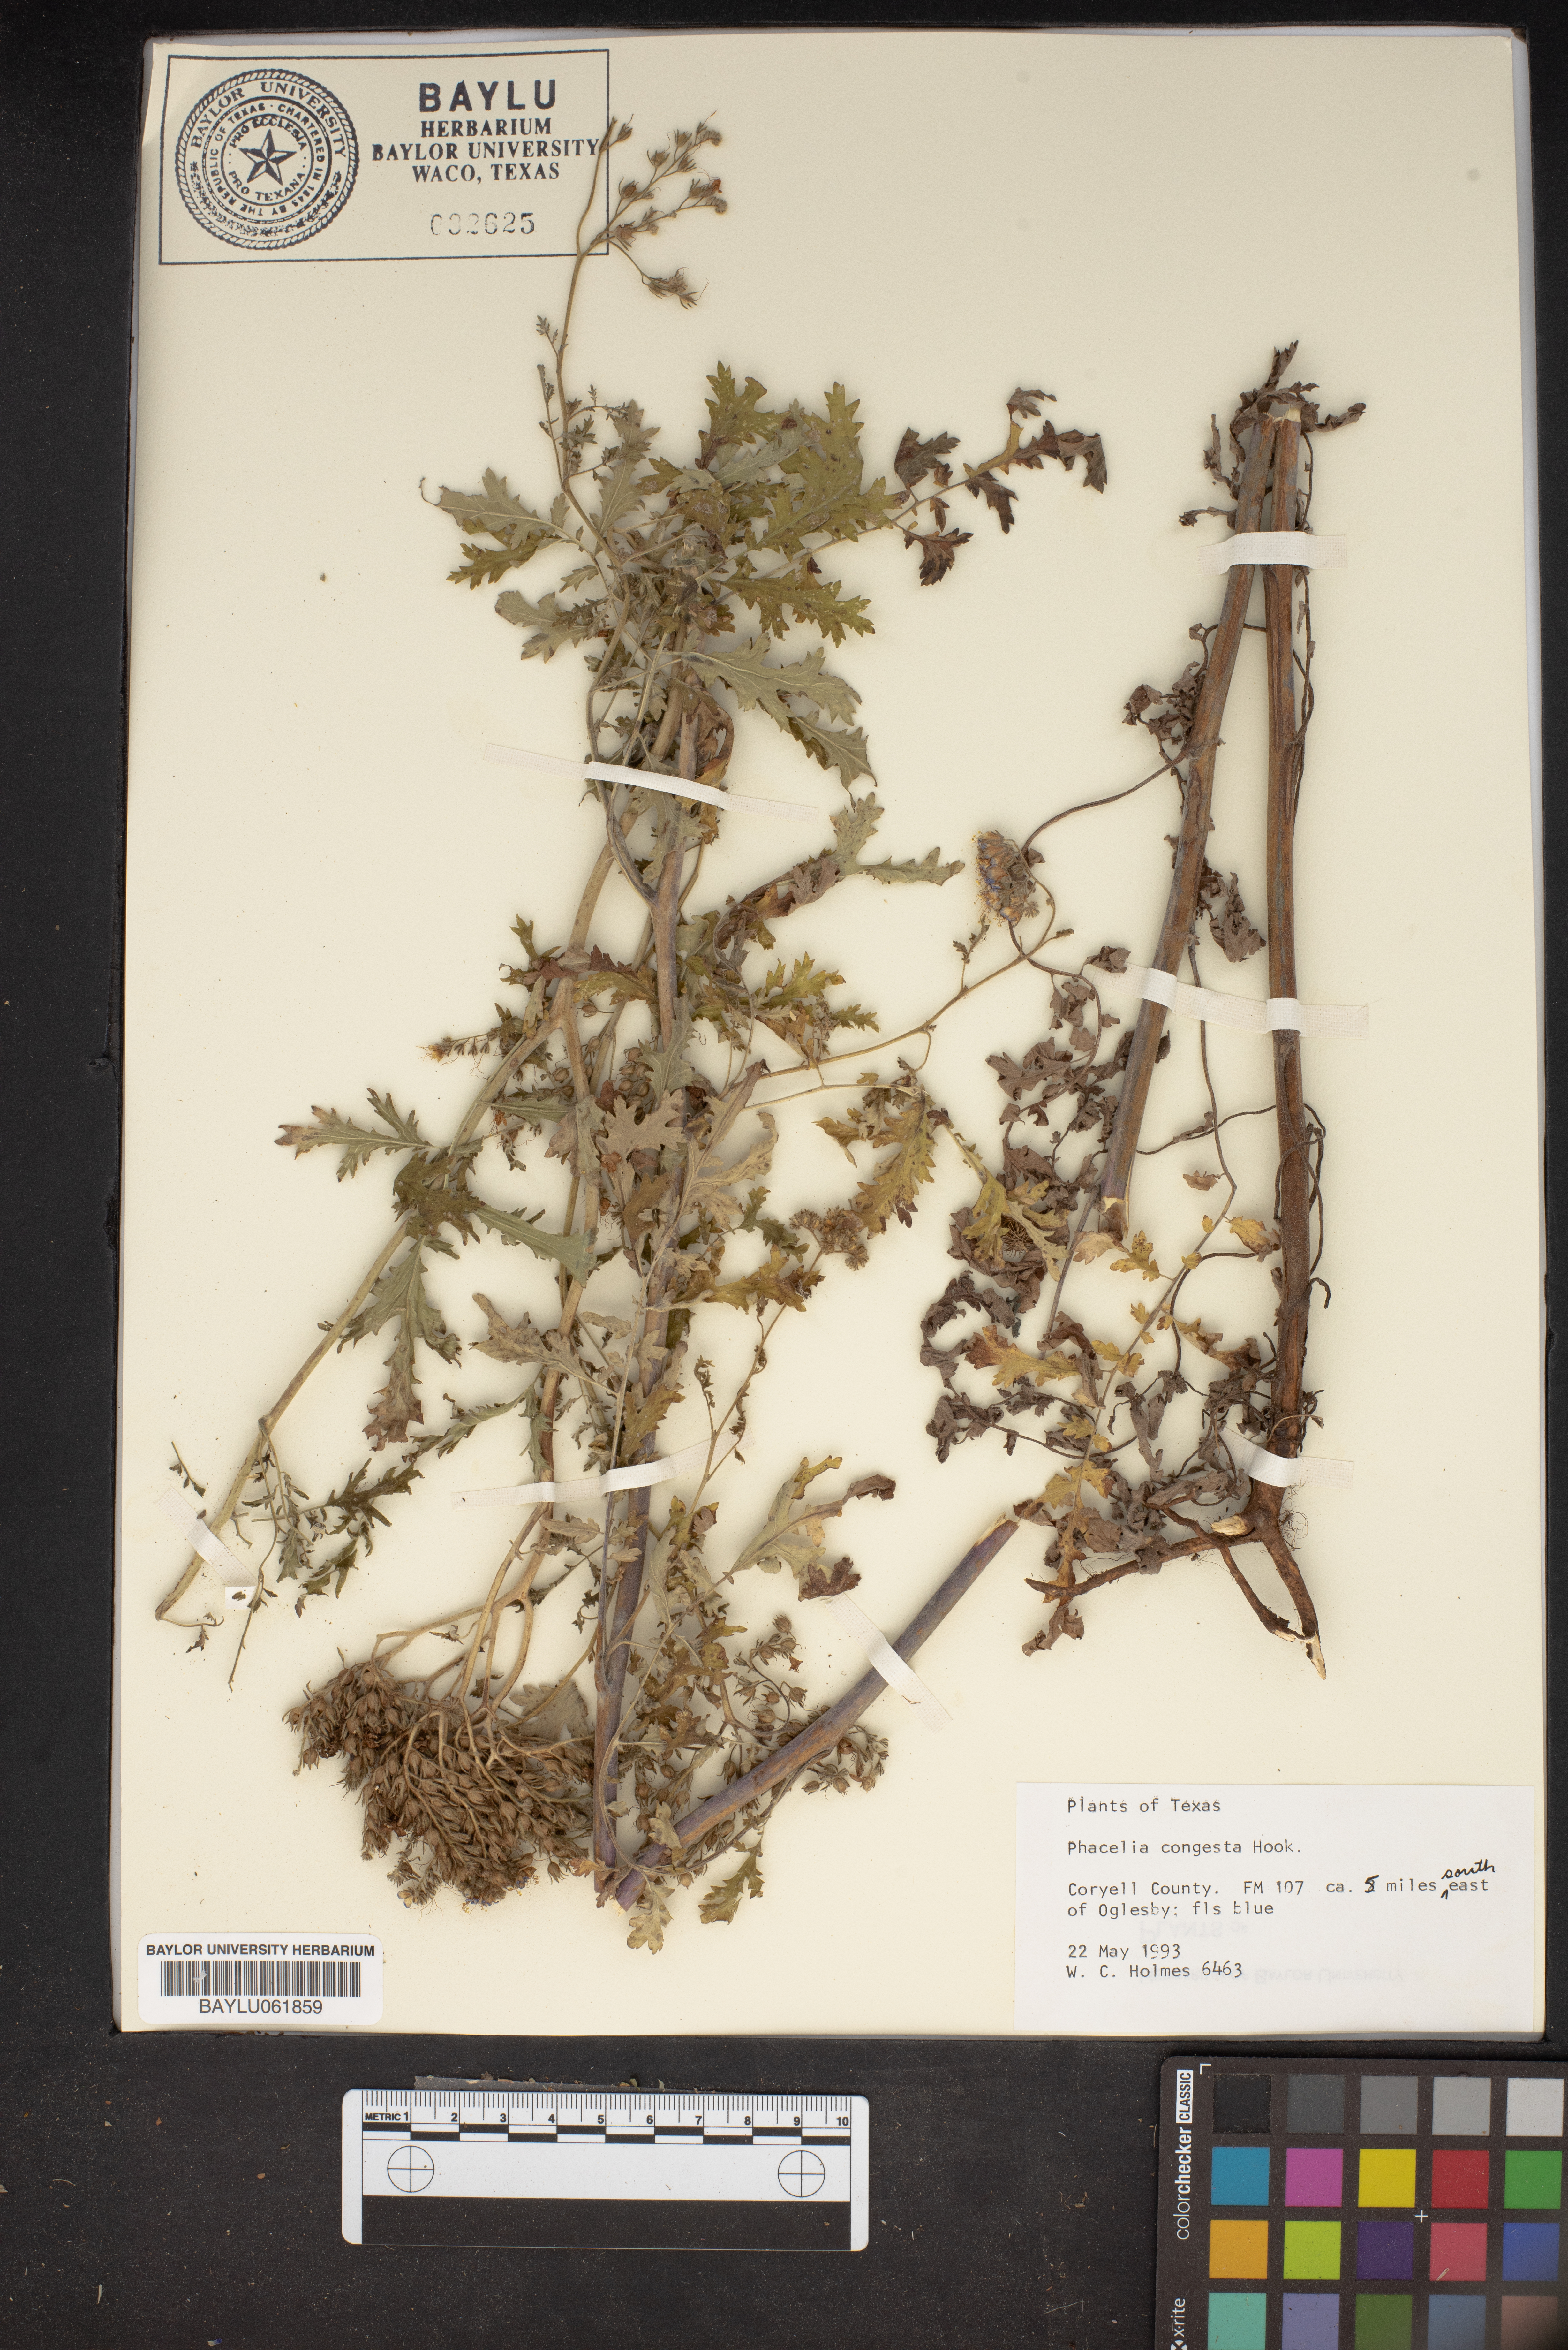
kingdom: Plantae
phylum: Tracheophyta
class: Magnoliopsida
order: Boraginales
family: Hydrophyllaceae
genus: Phacelia
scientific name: Phacelia congesta
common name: Blue curls
